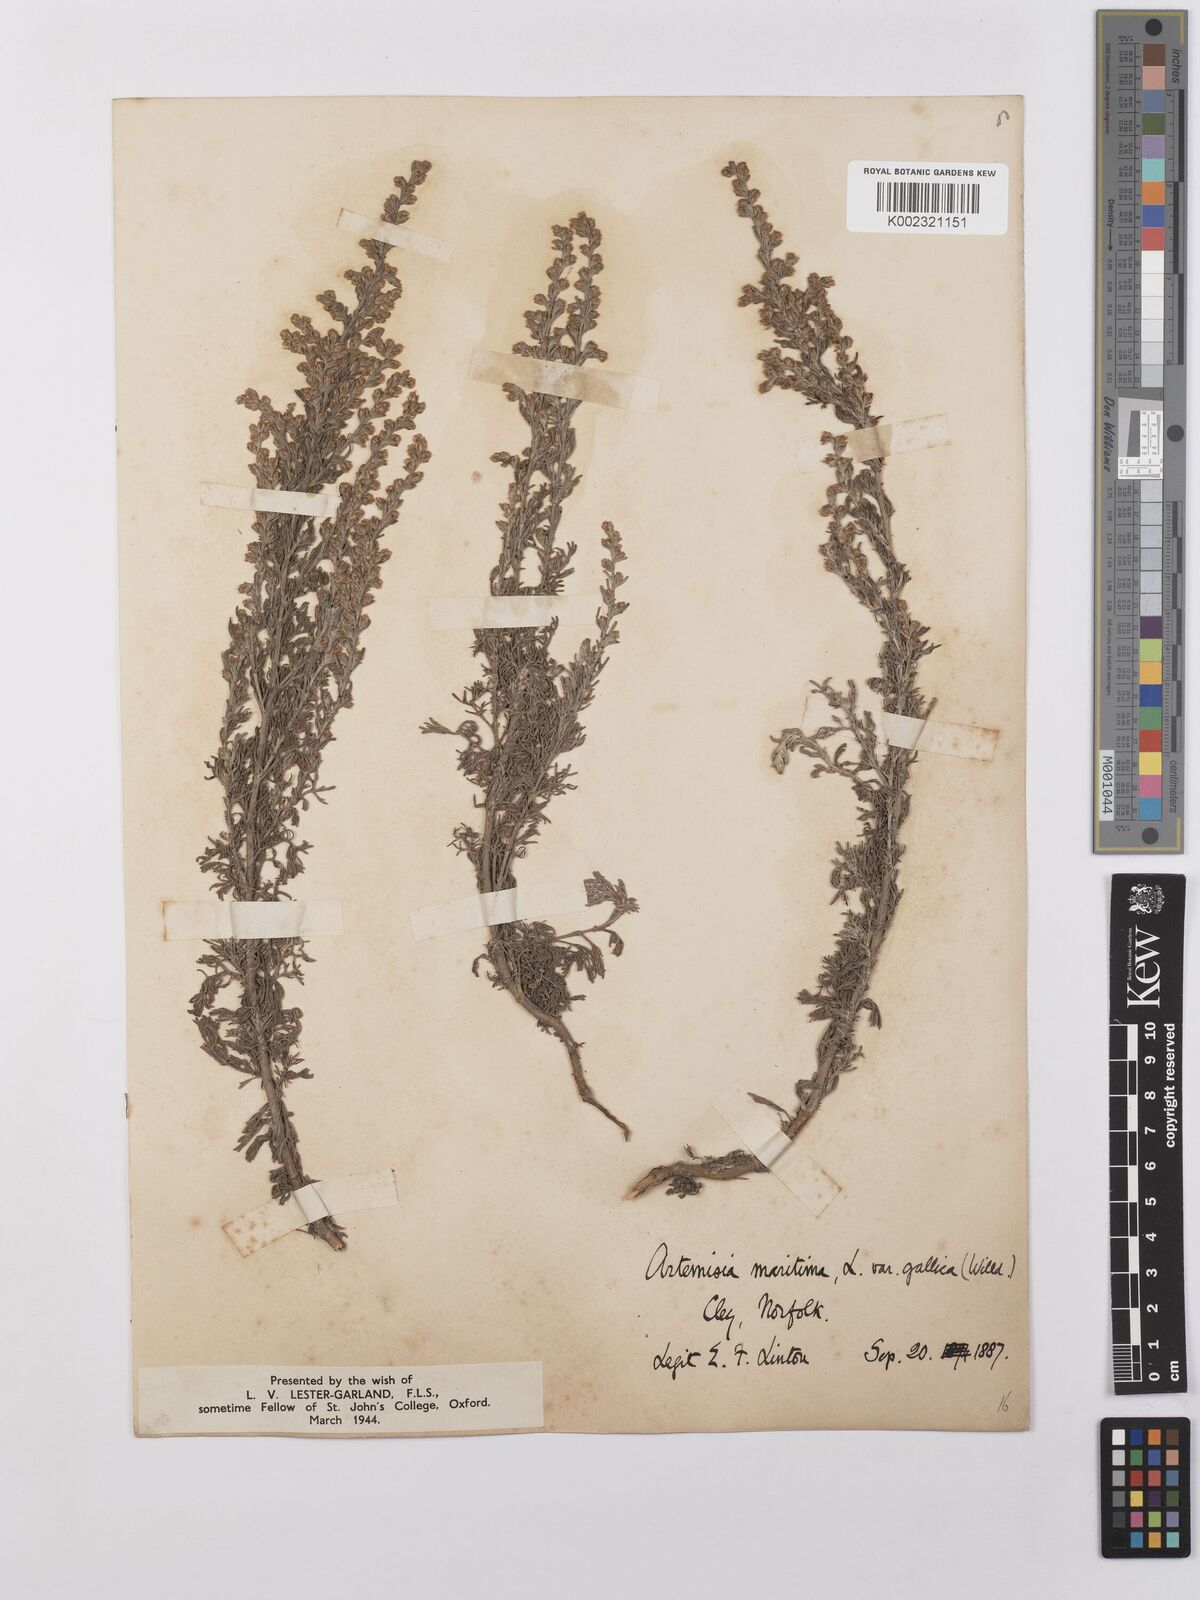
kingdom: Plantae
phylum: Tracheophyta
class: Magnoliopsida
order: Asterales
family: Asteraceae
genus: Artemisia
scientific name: Artemisia maritima
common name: Wormseed
